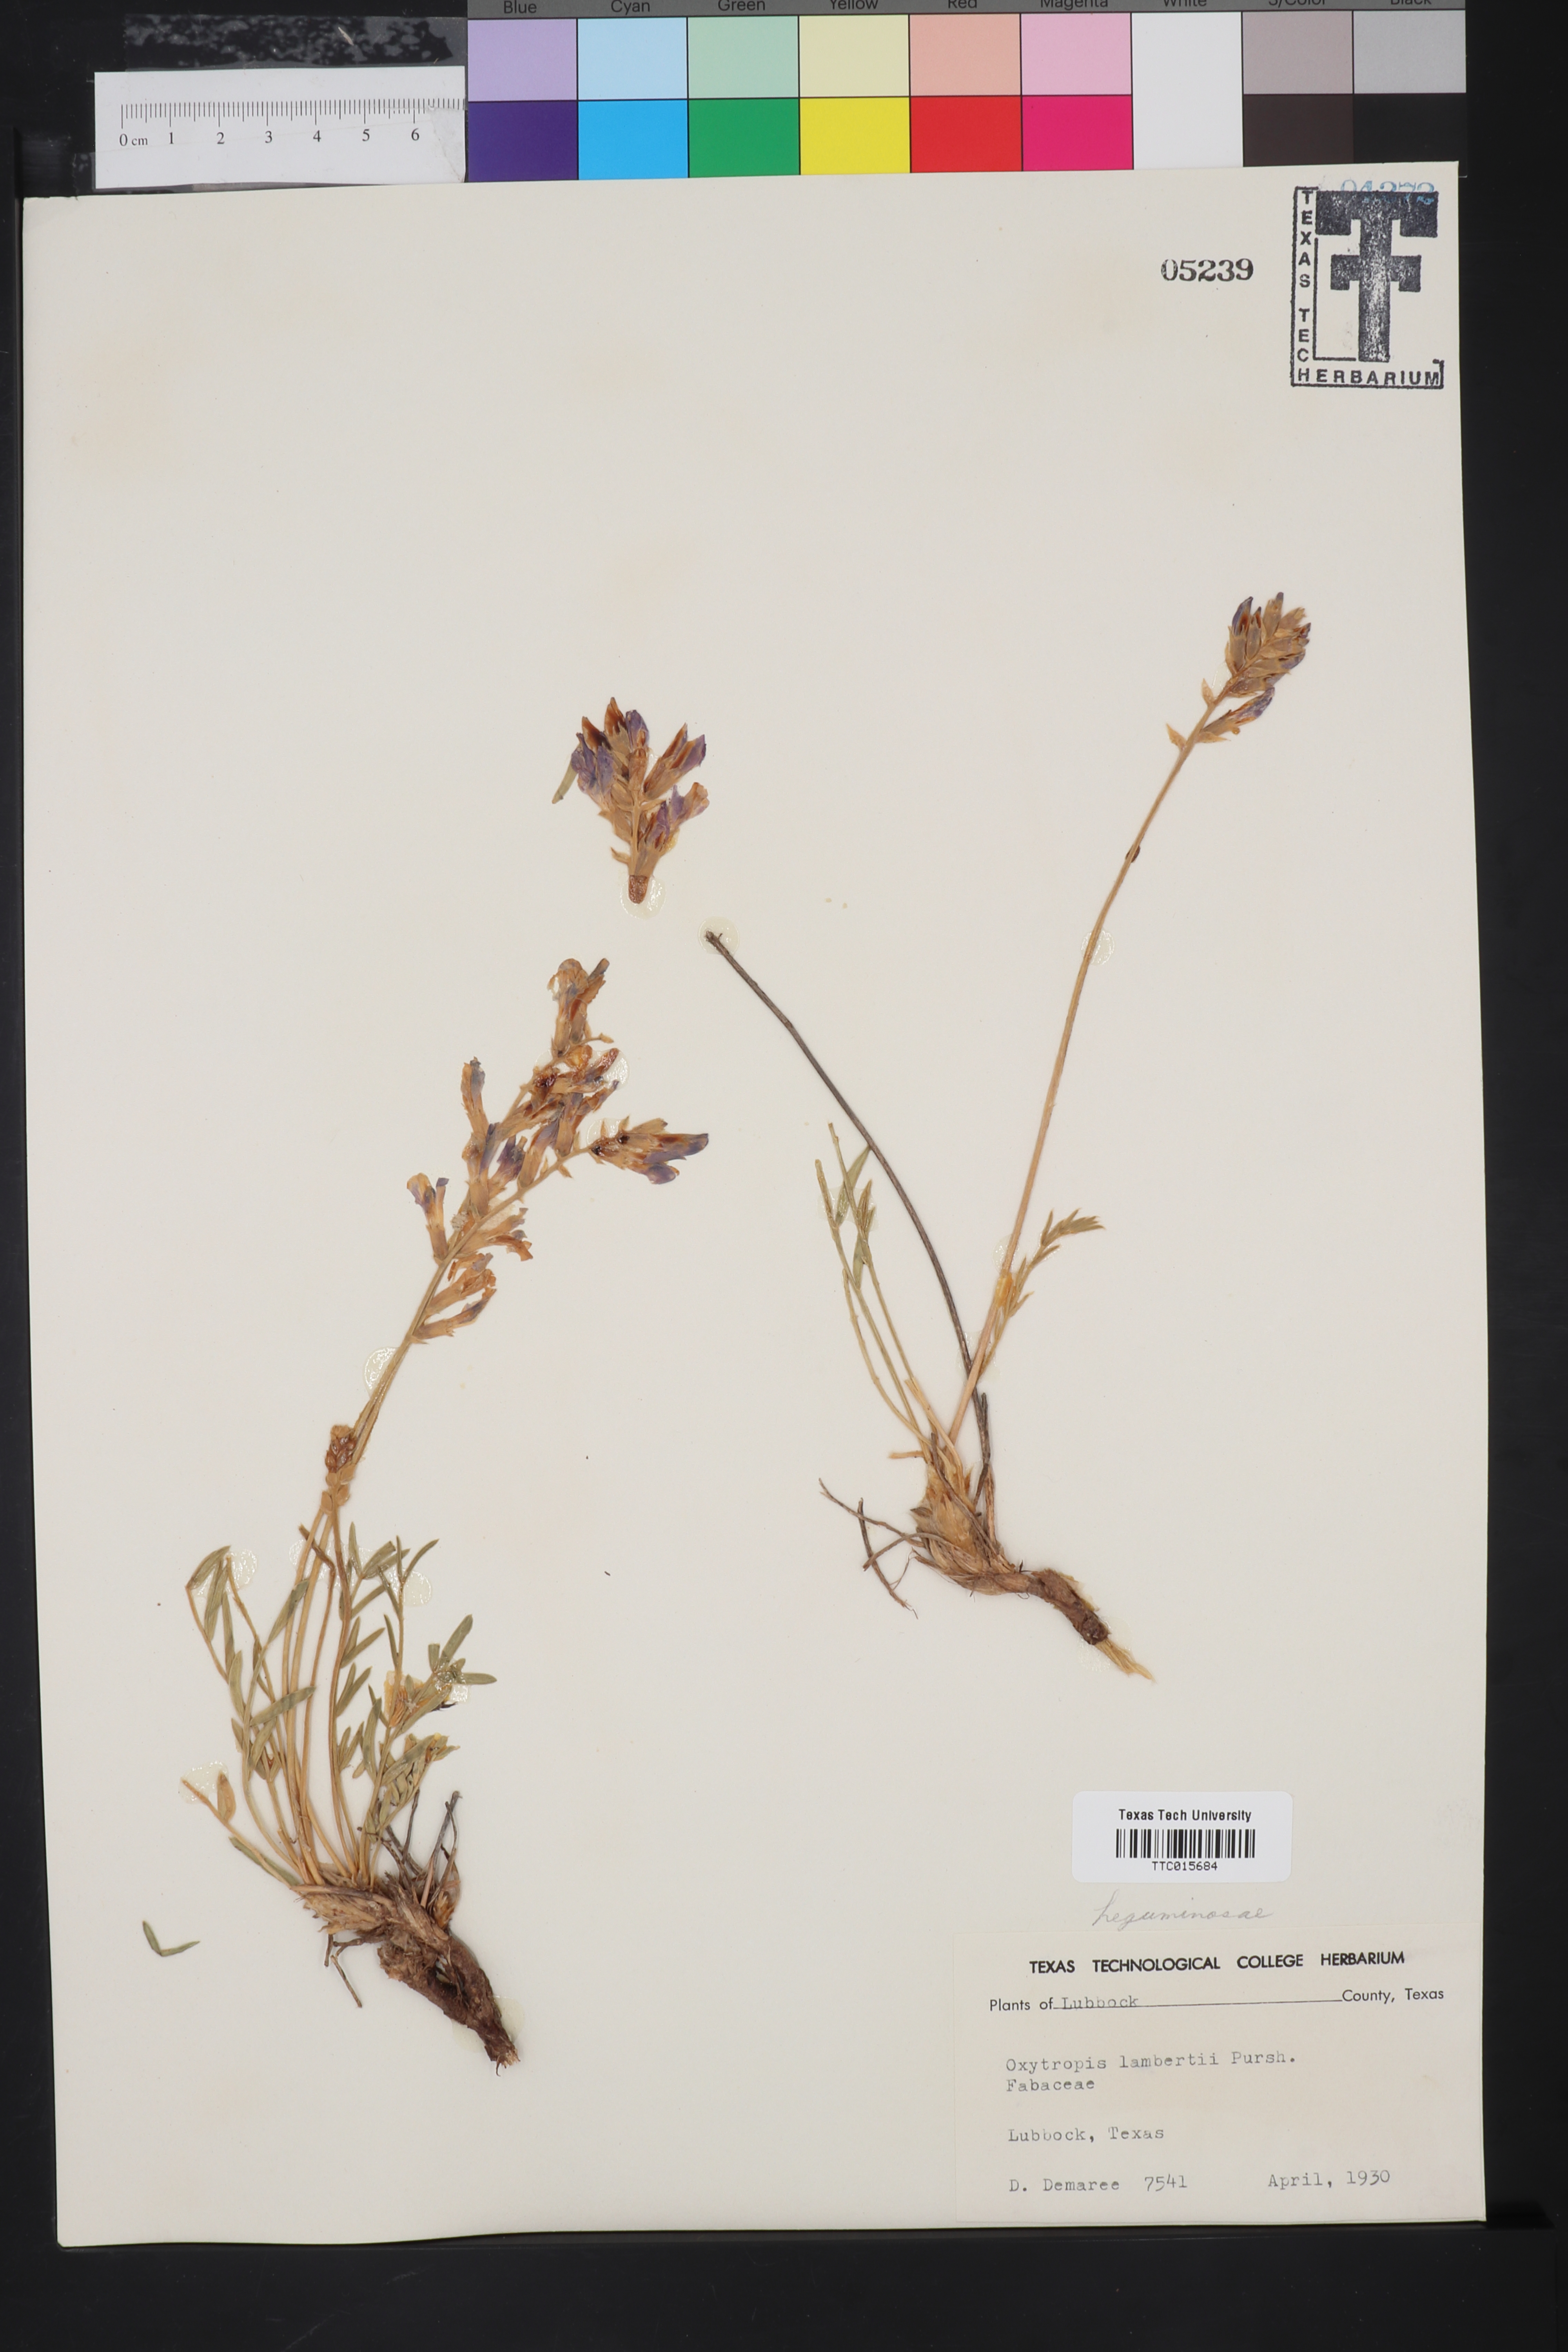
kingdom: Plantae
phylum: Tracheophyta
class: Magnoliopsida
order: Fabales
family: Fabaceae
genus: Oxytropis
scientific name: Oxytropis lambertii
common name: Purple locoweed
